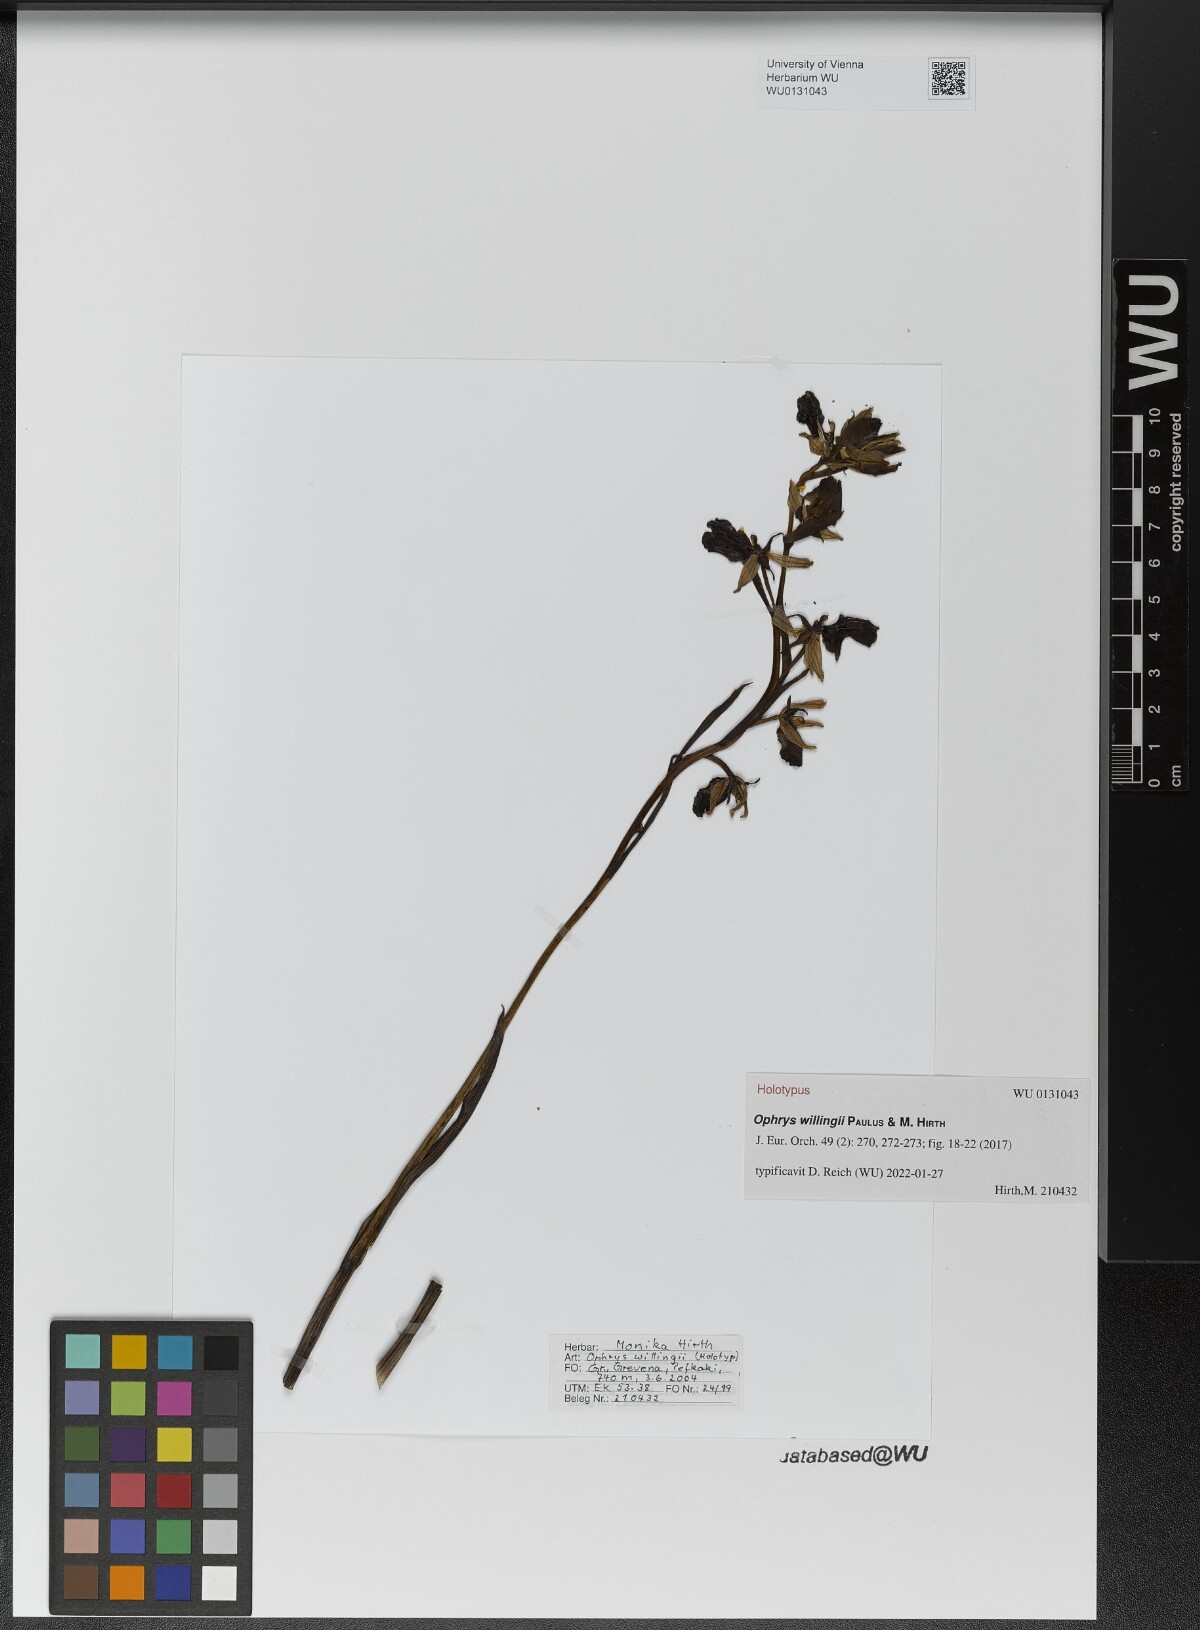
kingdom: Plantae
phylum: Tracheophyta
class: Liliopsida
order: Asparagales
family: Orchidaceae
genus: Ophrys
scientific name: Ophrys sphegodes
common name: Early spider-orchid
